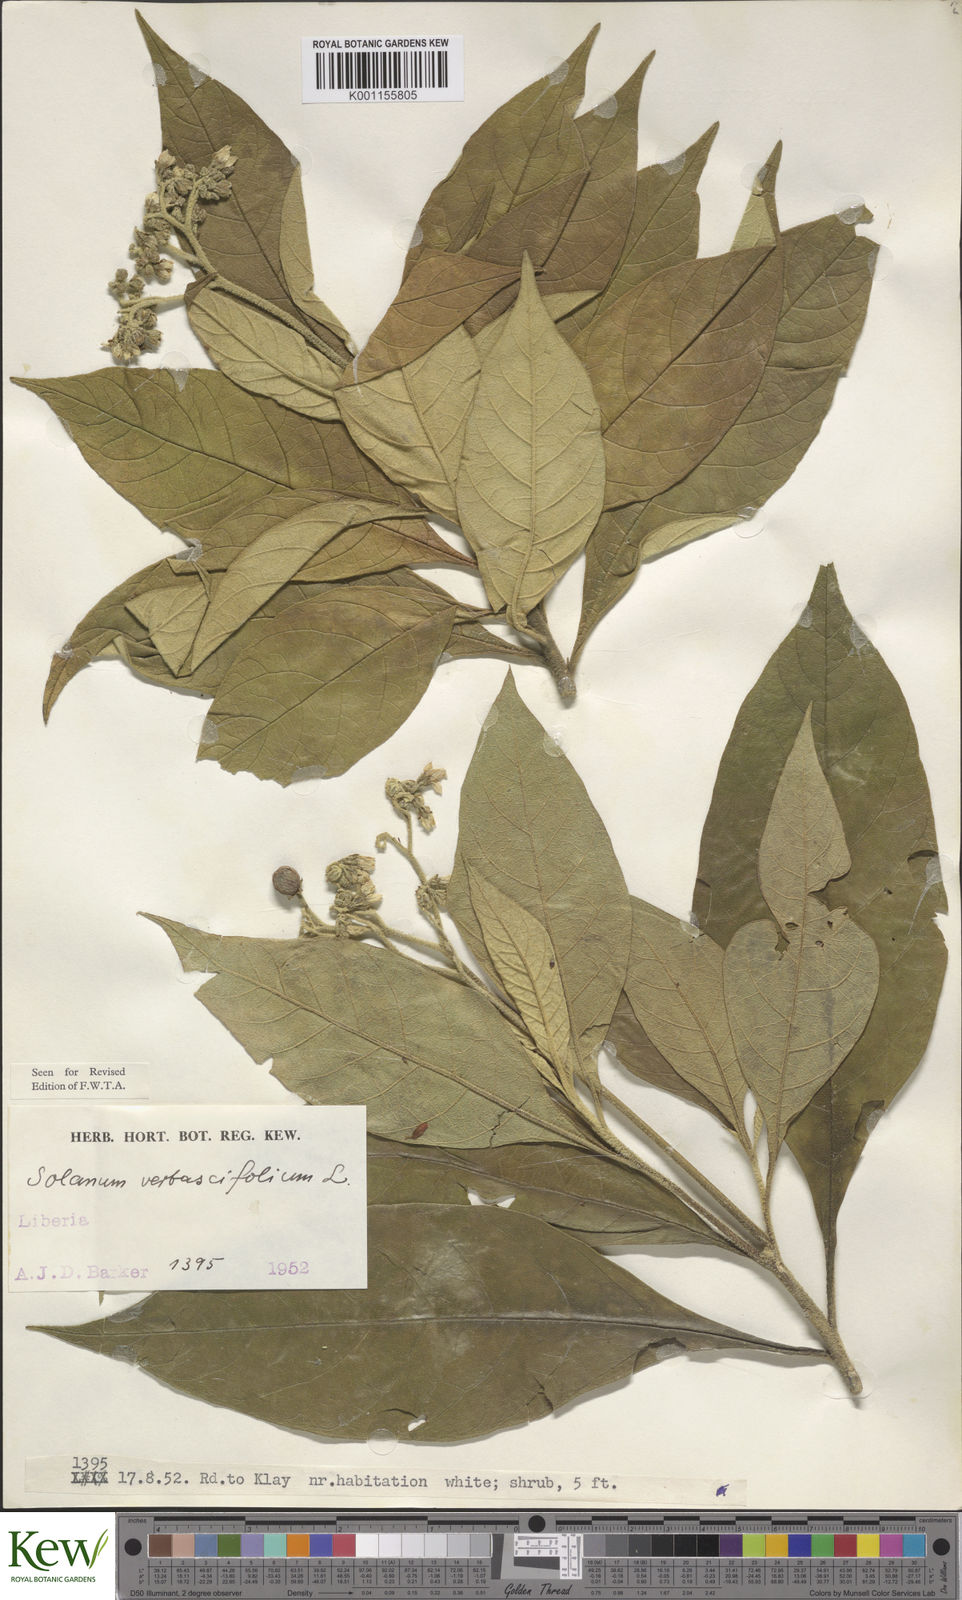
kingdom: Plantae
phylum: Tracheophyta
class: Magnoliopsida
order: Solanales
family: Solanaceae
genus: Solanum
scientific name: Solanum rugosum
